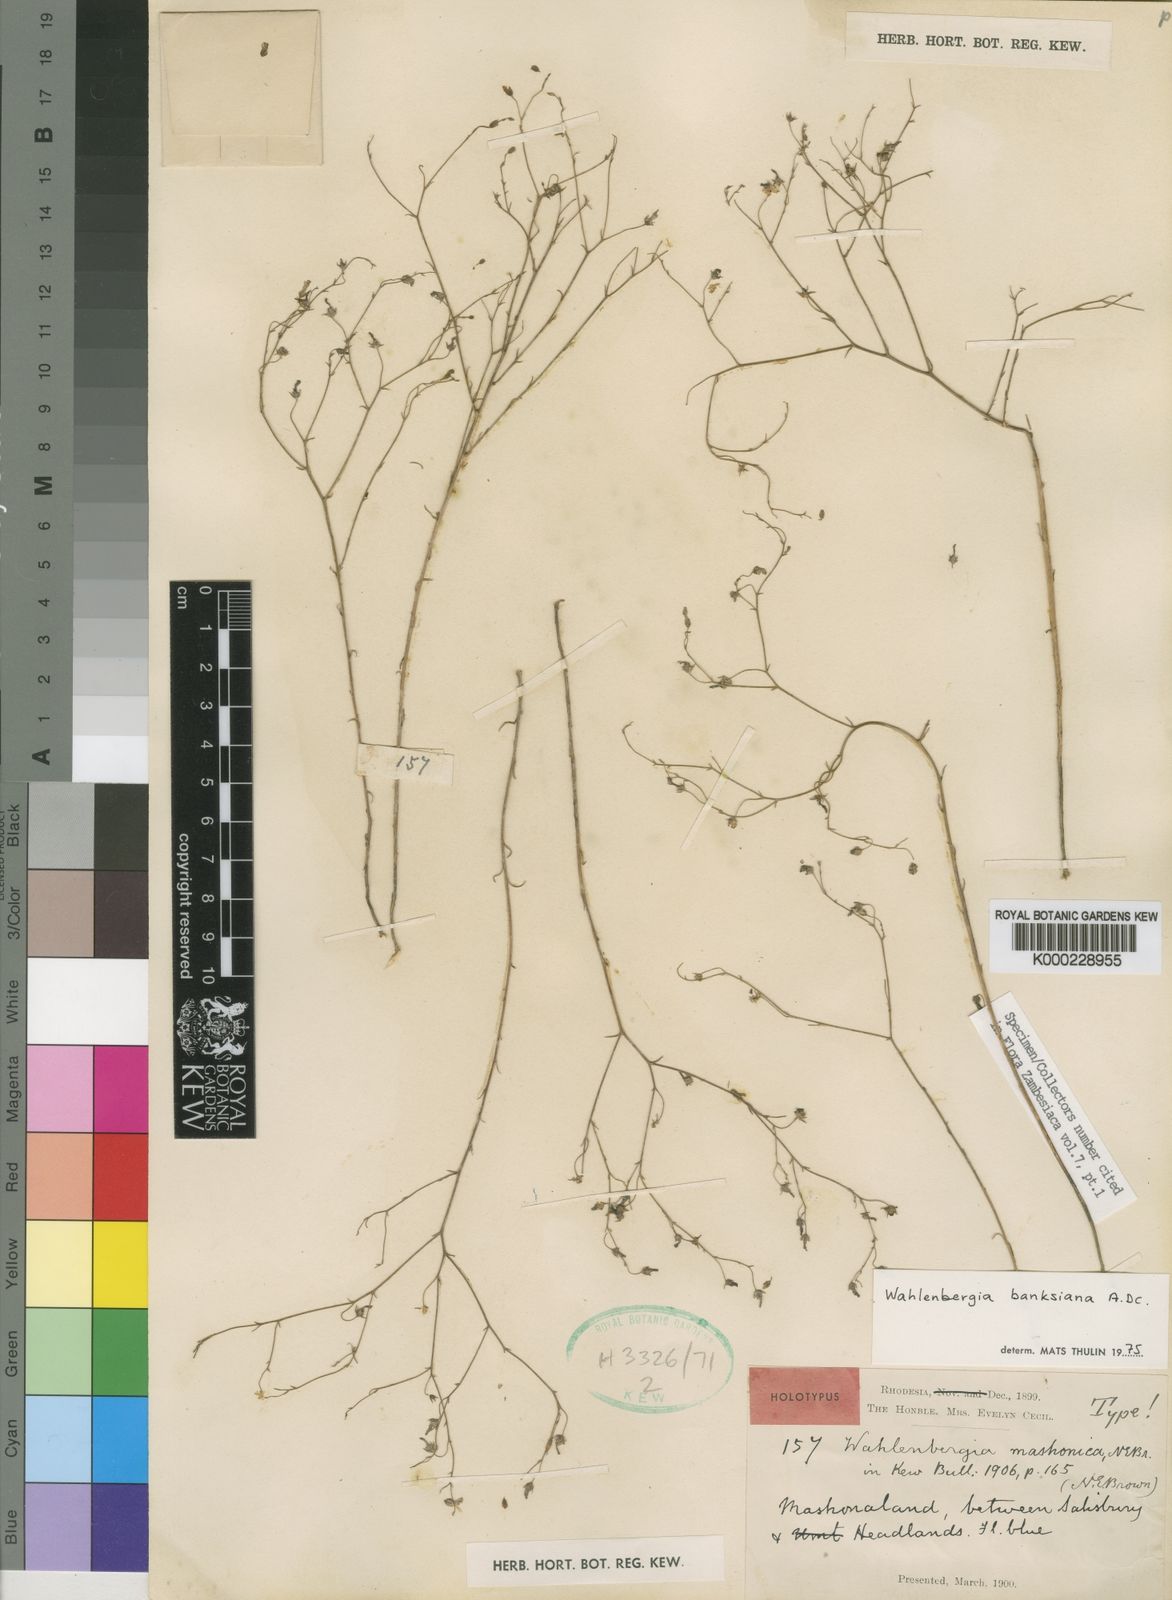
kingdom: Plantae
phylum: Tracheophyta
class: Magnoliopsida
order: Asterales
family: Campanulaceae
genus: Wahlenbergia
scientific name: Wahlenbergia banksiana
